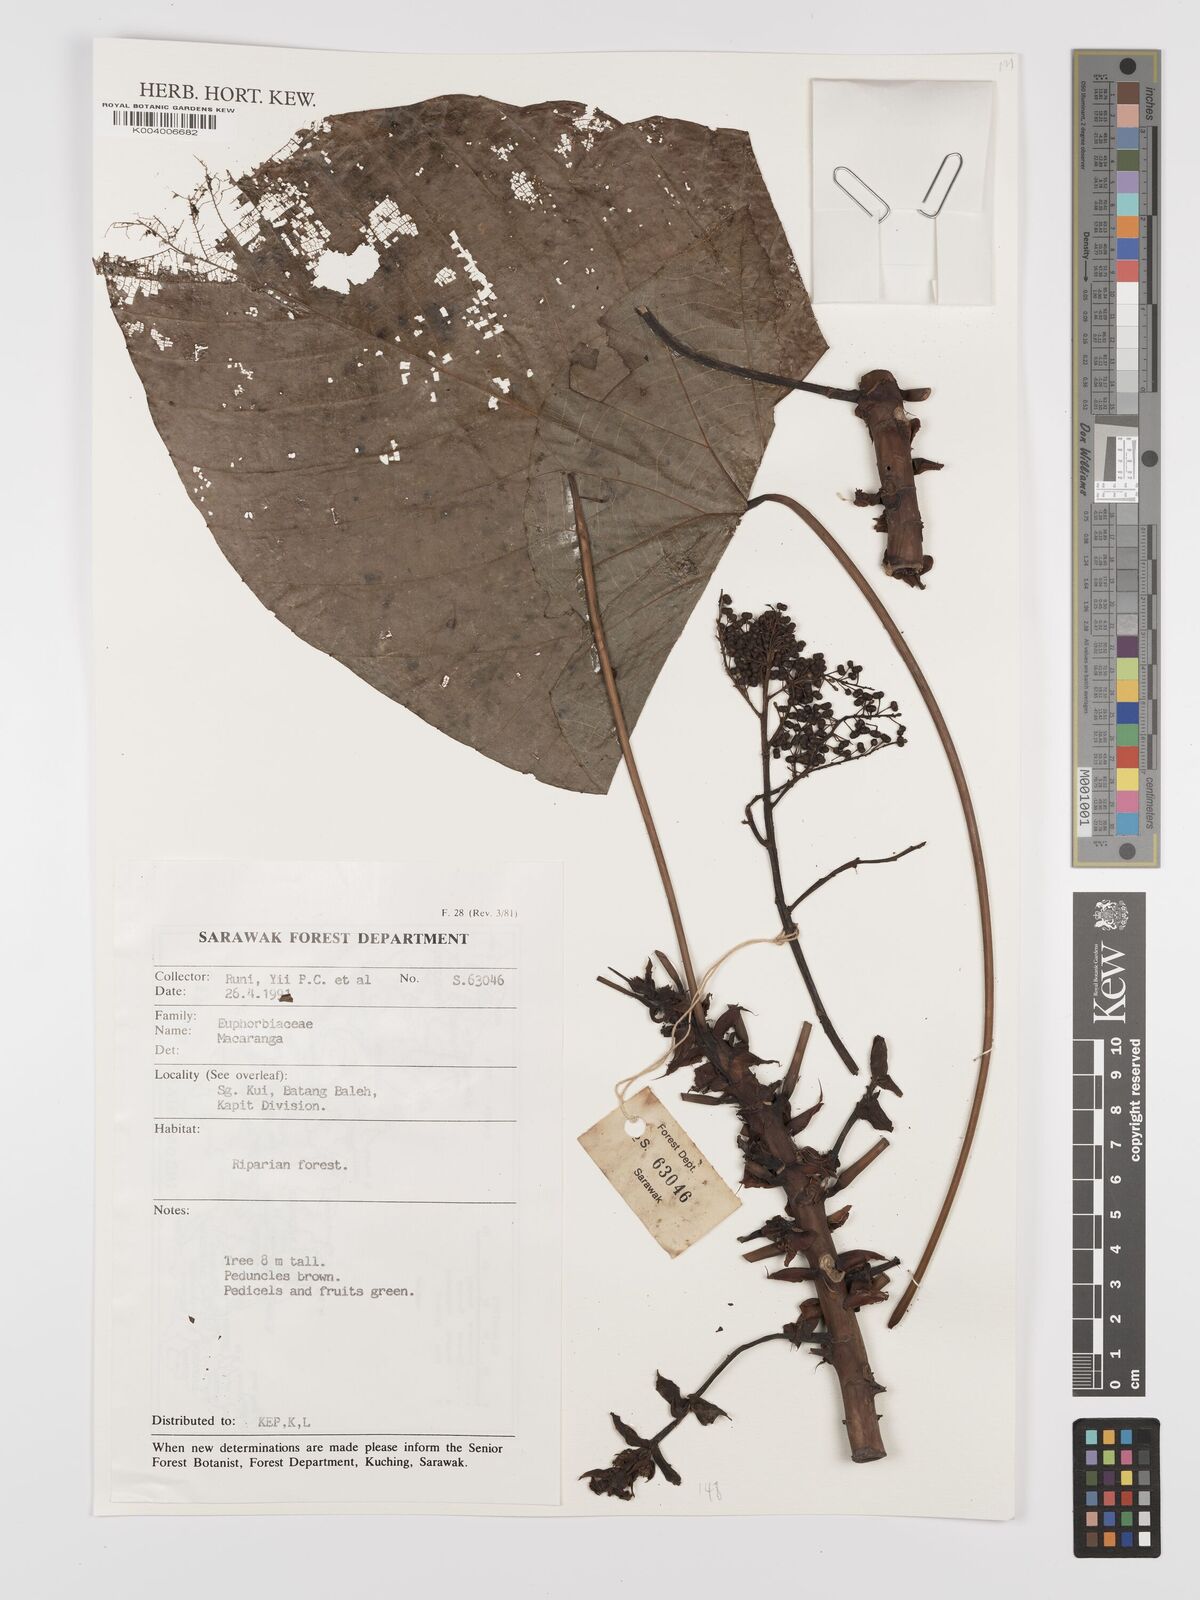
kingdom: Plantae
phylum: Tracheophyta
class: Magnoliopsida
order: Malpighiales
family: Euphorbiaceae
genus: Macaranga
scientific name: Macaranga
